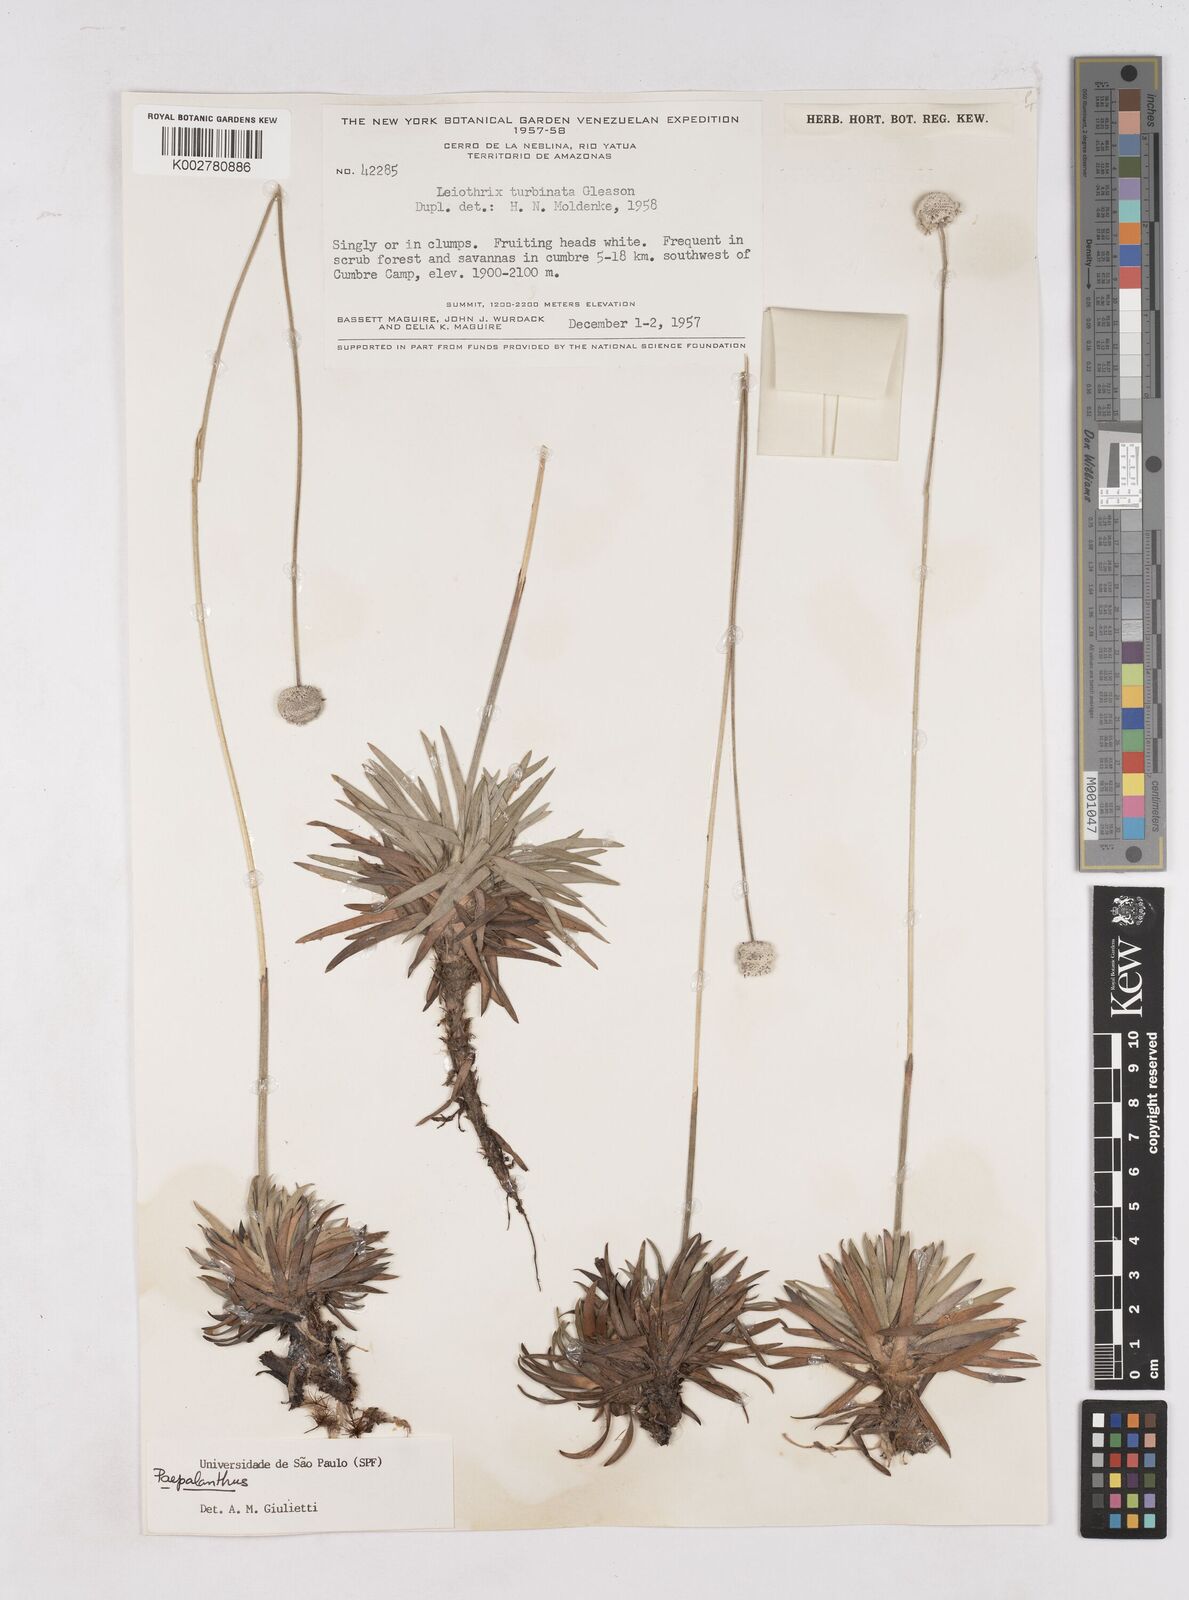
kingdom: Plantae
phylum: Tracheophyta
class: Liliopsida
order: Poales
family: Eriocaulaceae
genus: Paepalanthus
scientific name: Paepalanthus
